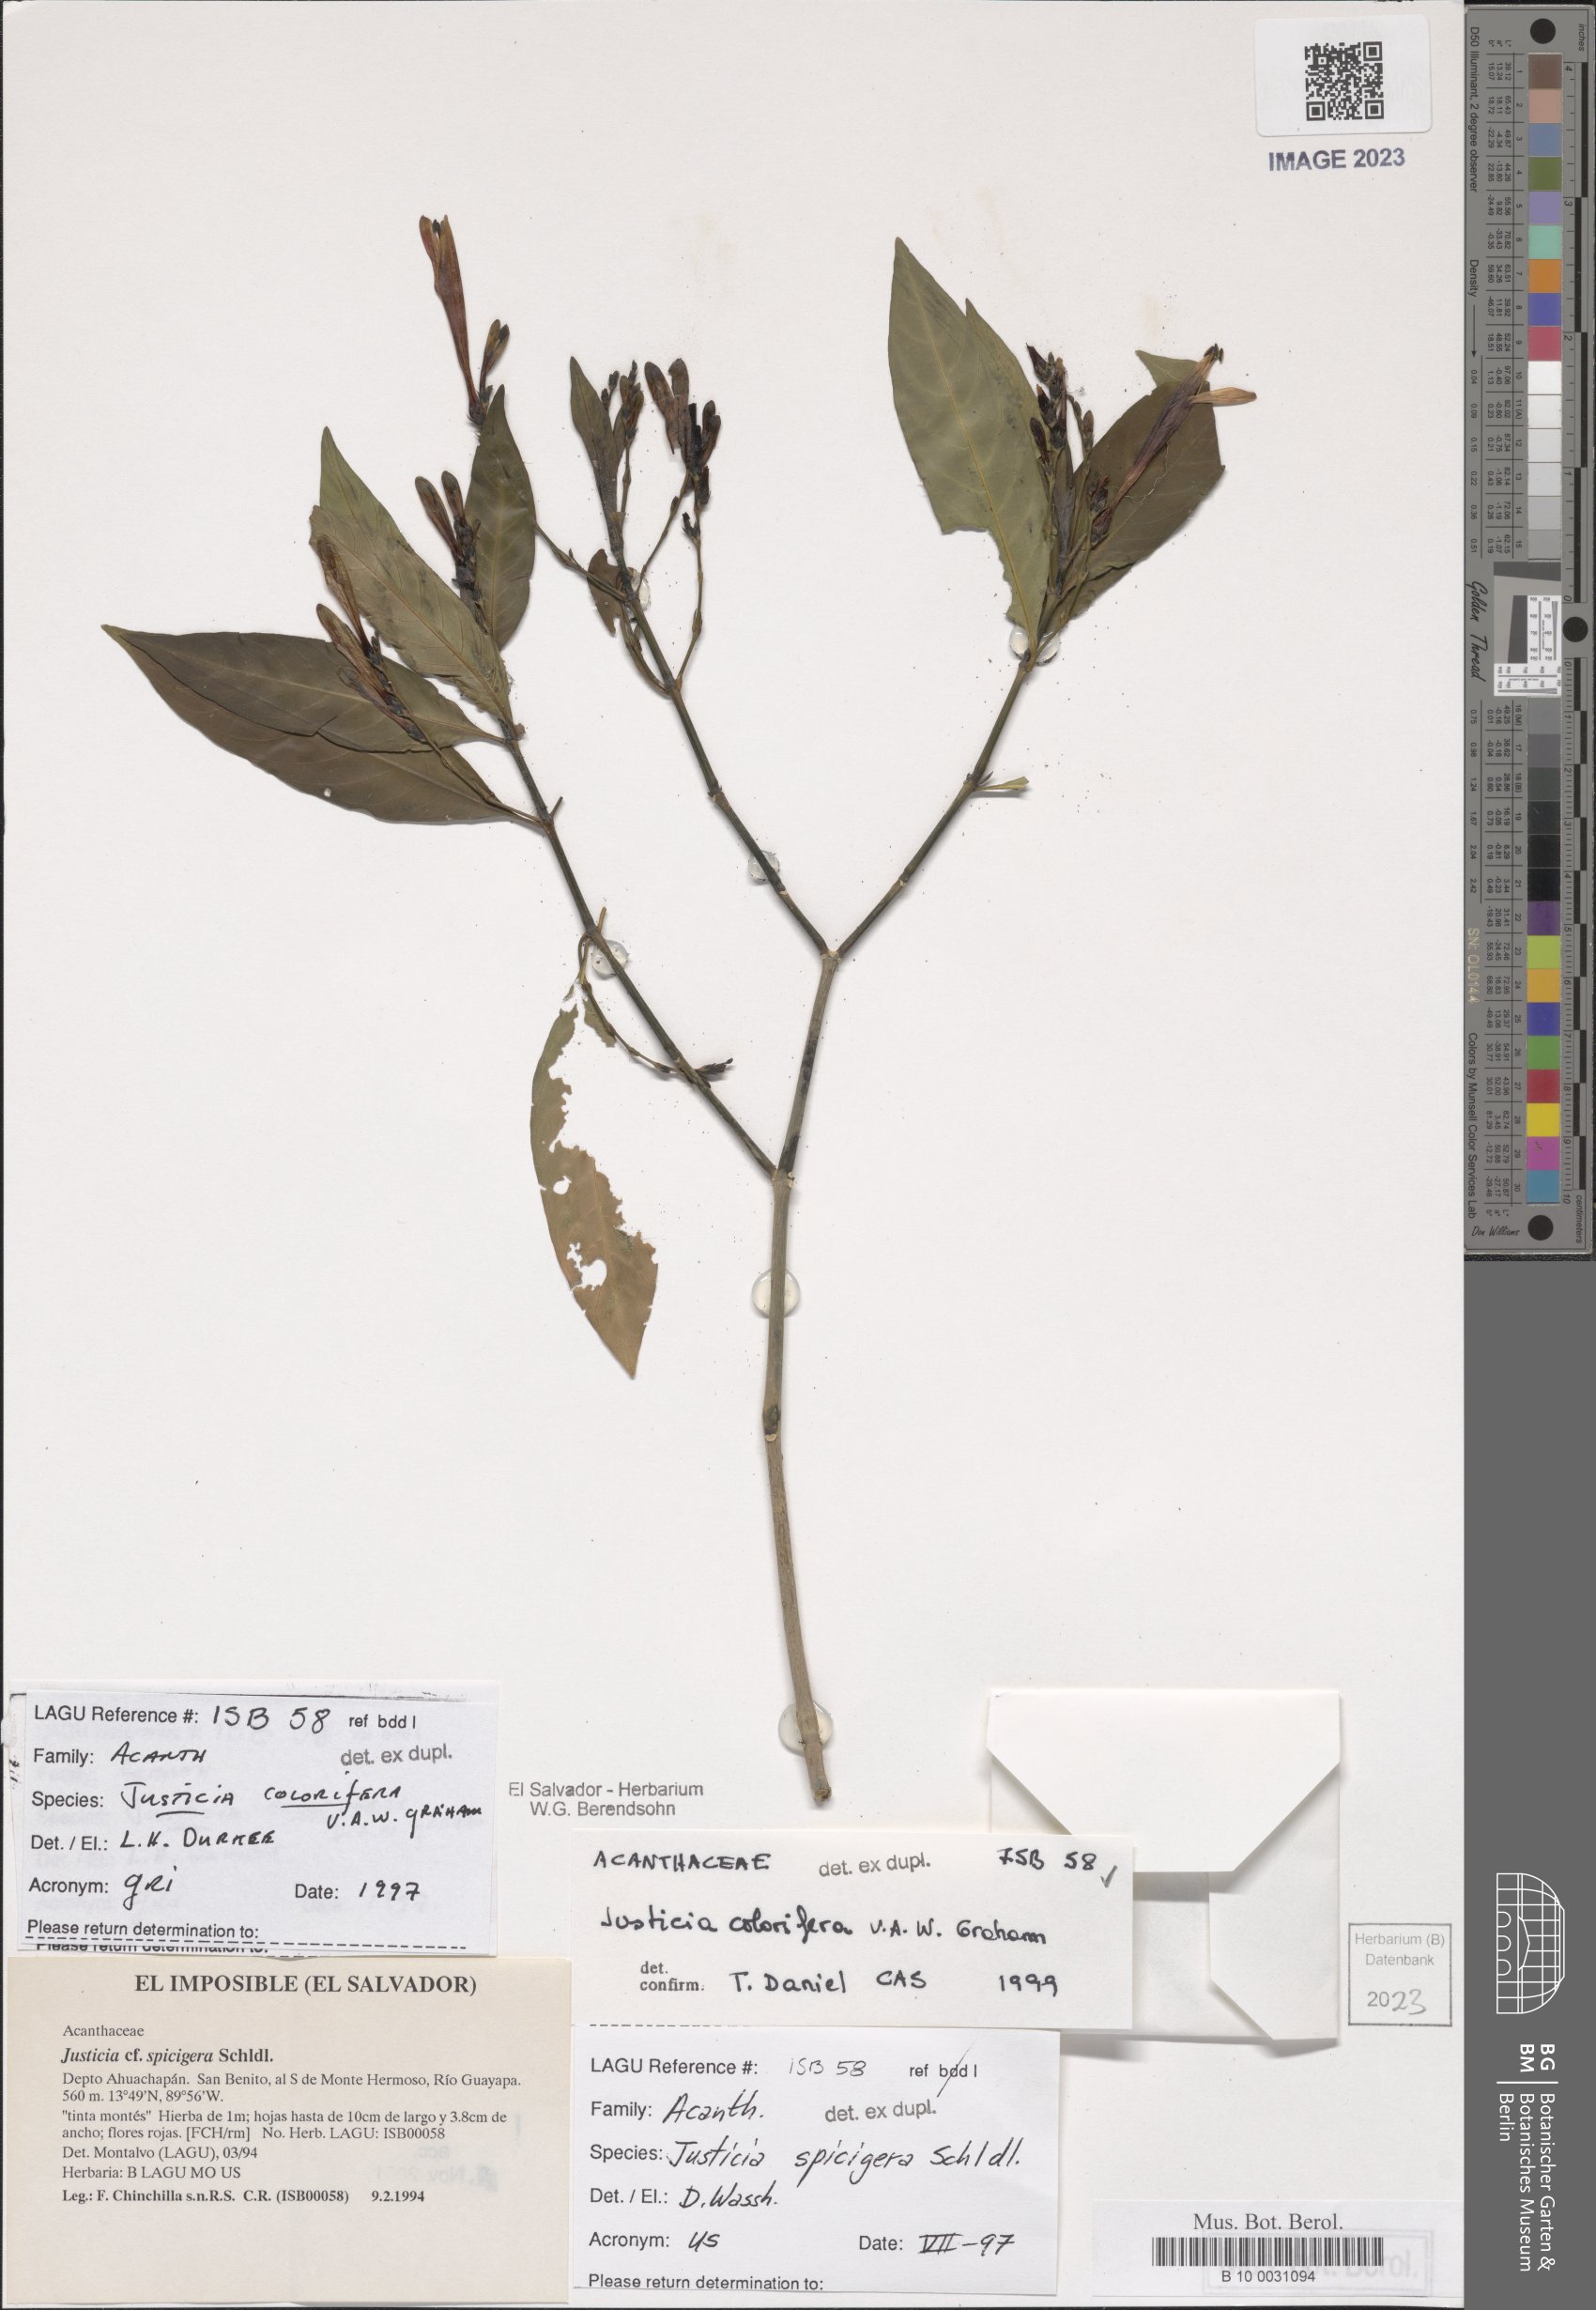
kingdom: Plantae
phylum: Tracheophyta
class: Magnoliopsida
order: Lamiales
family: Acanthaceae
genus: Justicia
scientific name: Justicia tinctoriella
